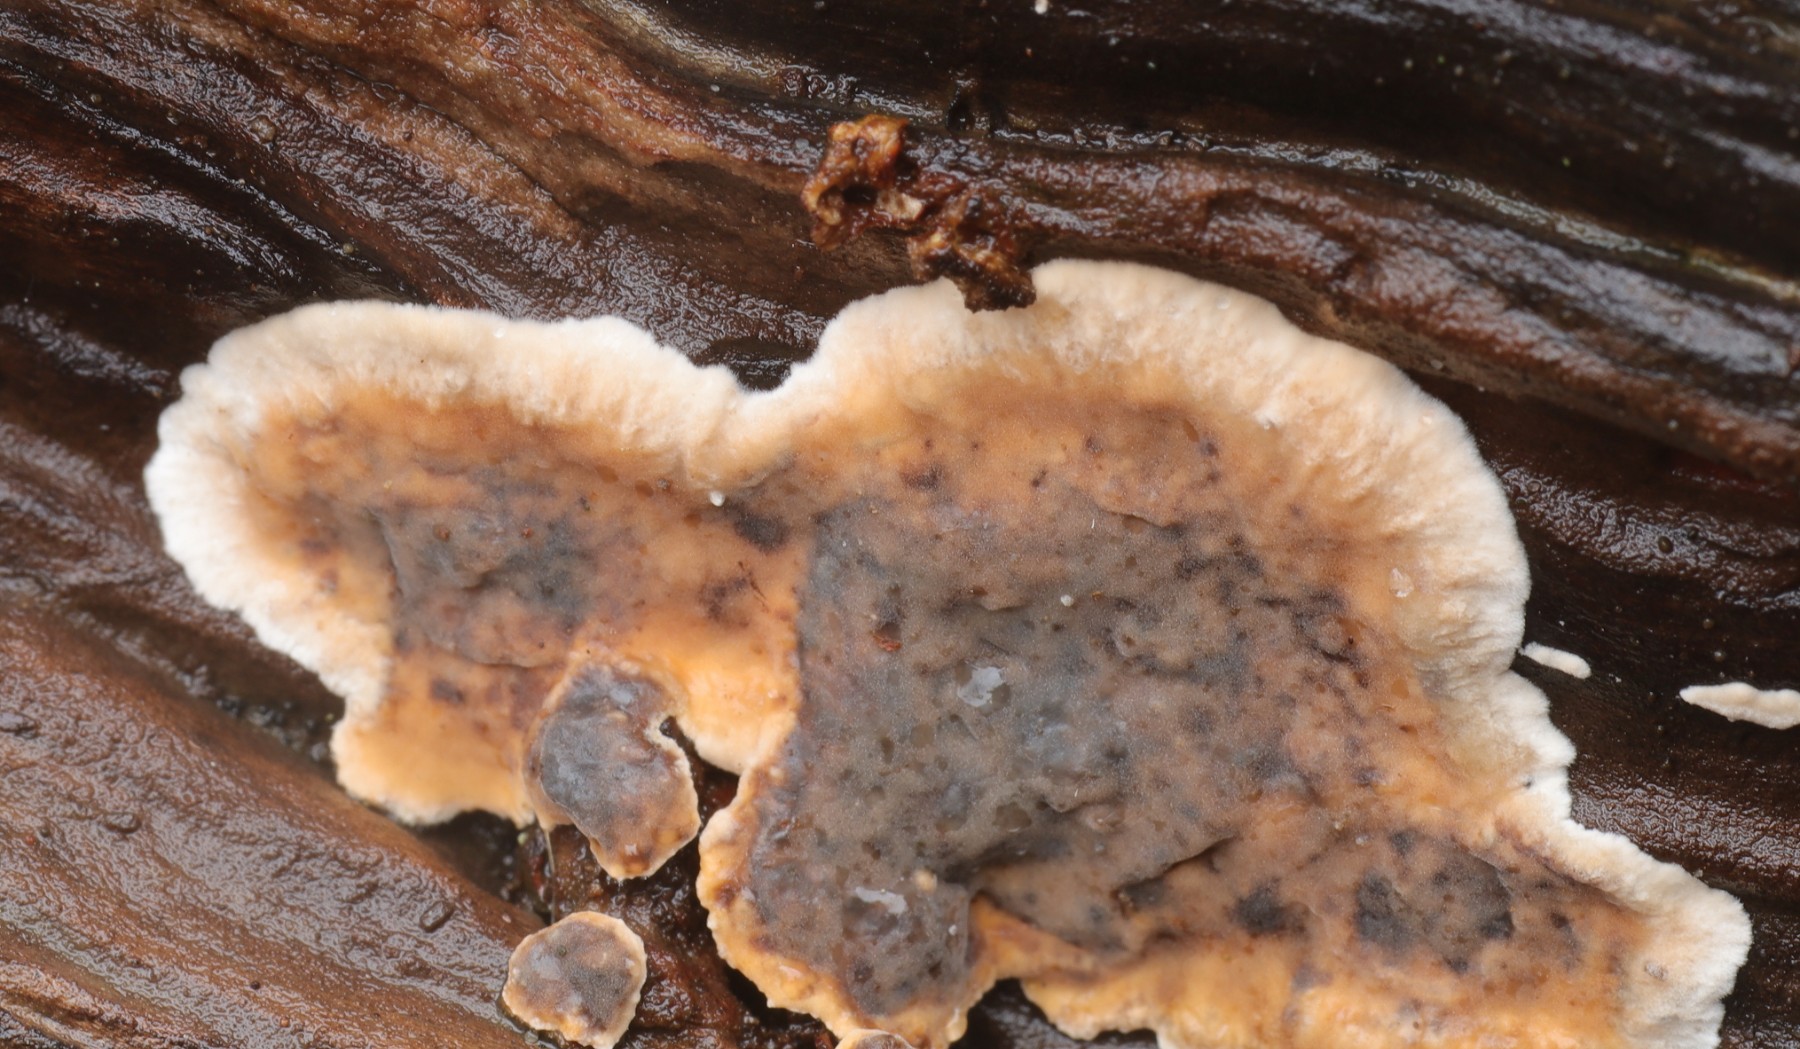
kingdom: Fungi
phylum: Basidiomycota
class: Agaricomycetes
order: Russulales
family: Stereaceae
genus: Stereum
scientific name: Stereum rugosum
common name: rynket lædersvamp
